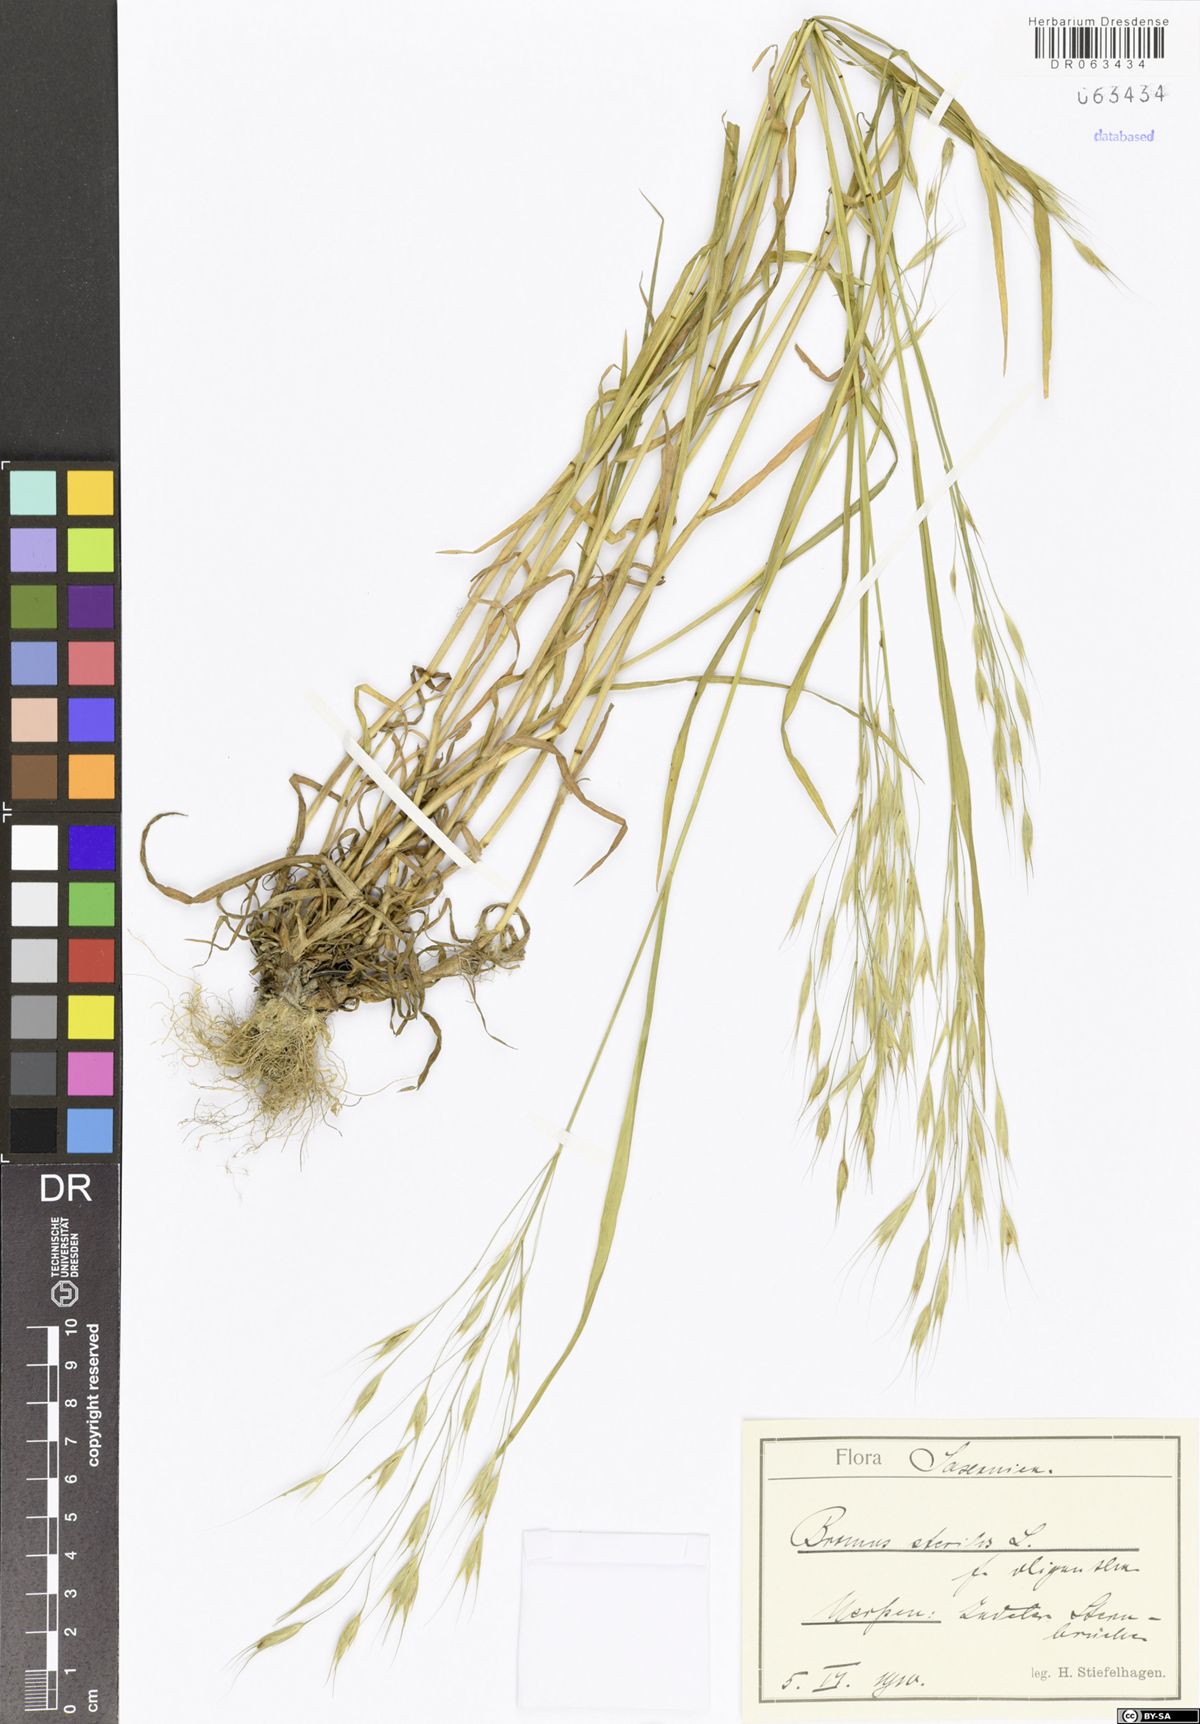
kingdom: Plantae
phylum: Tracheophyta
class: Liliopsida
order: Poales
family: Poaceae
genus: Bromus
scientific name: Bromus sterilis
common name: Poverty brome
